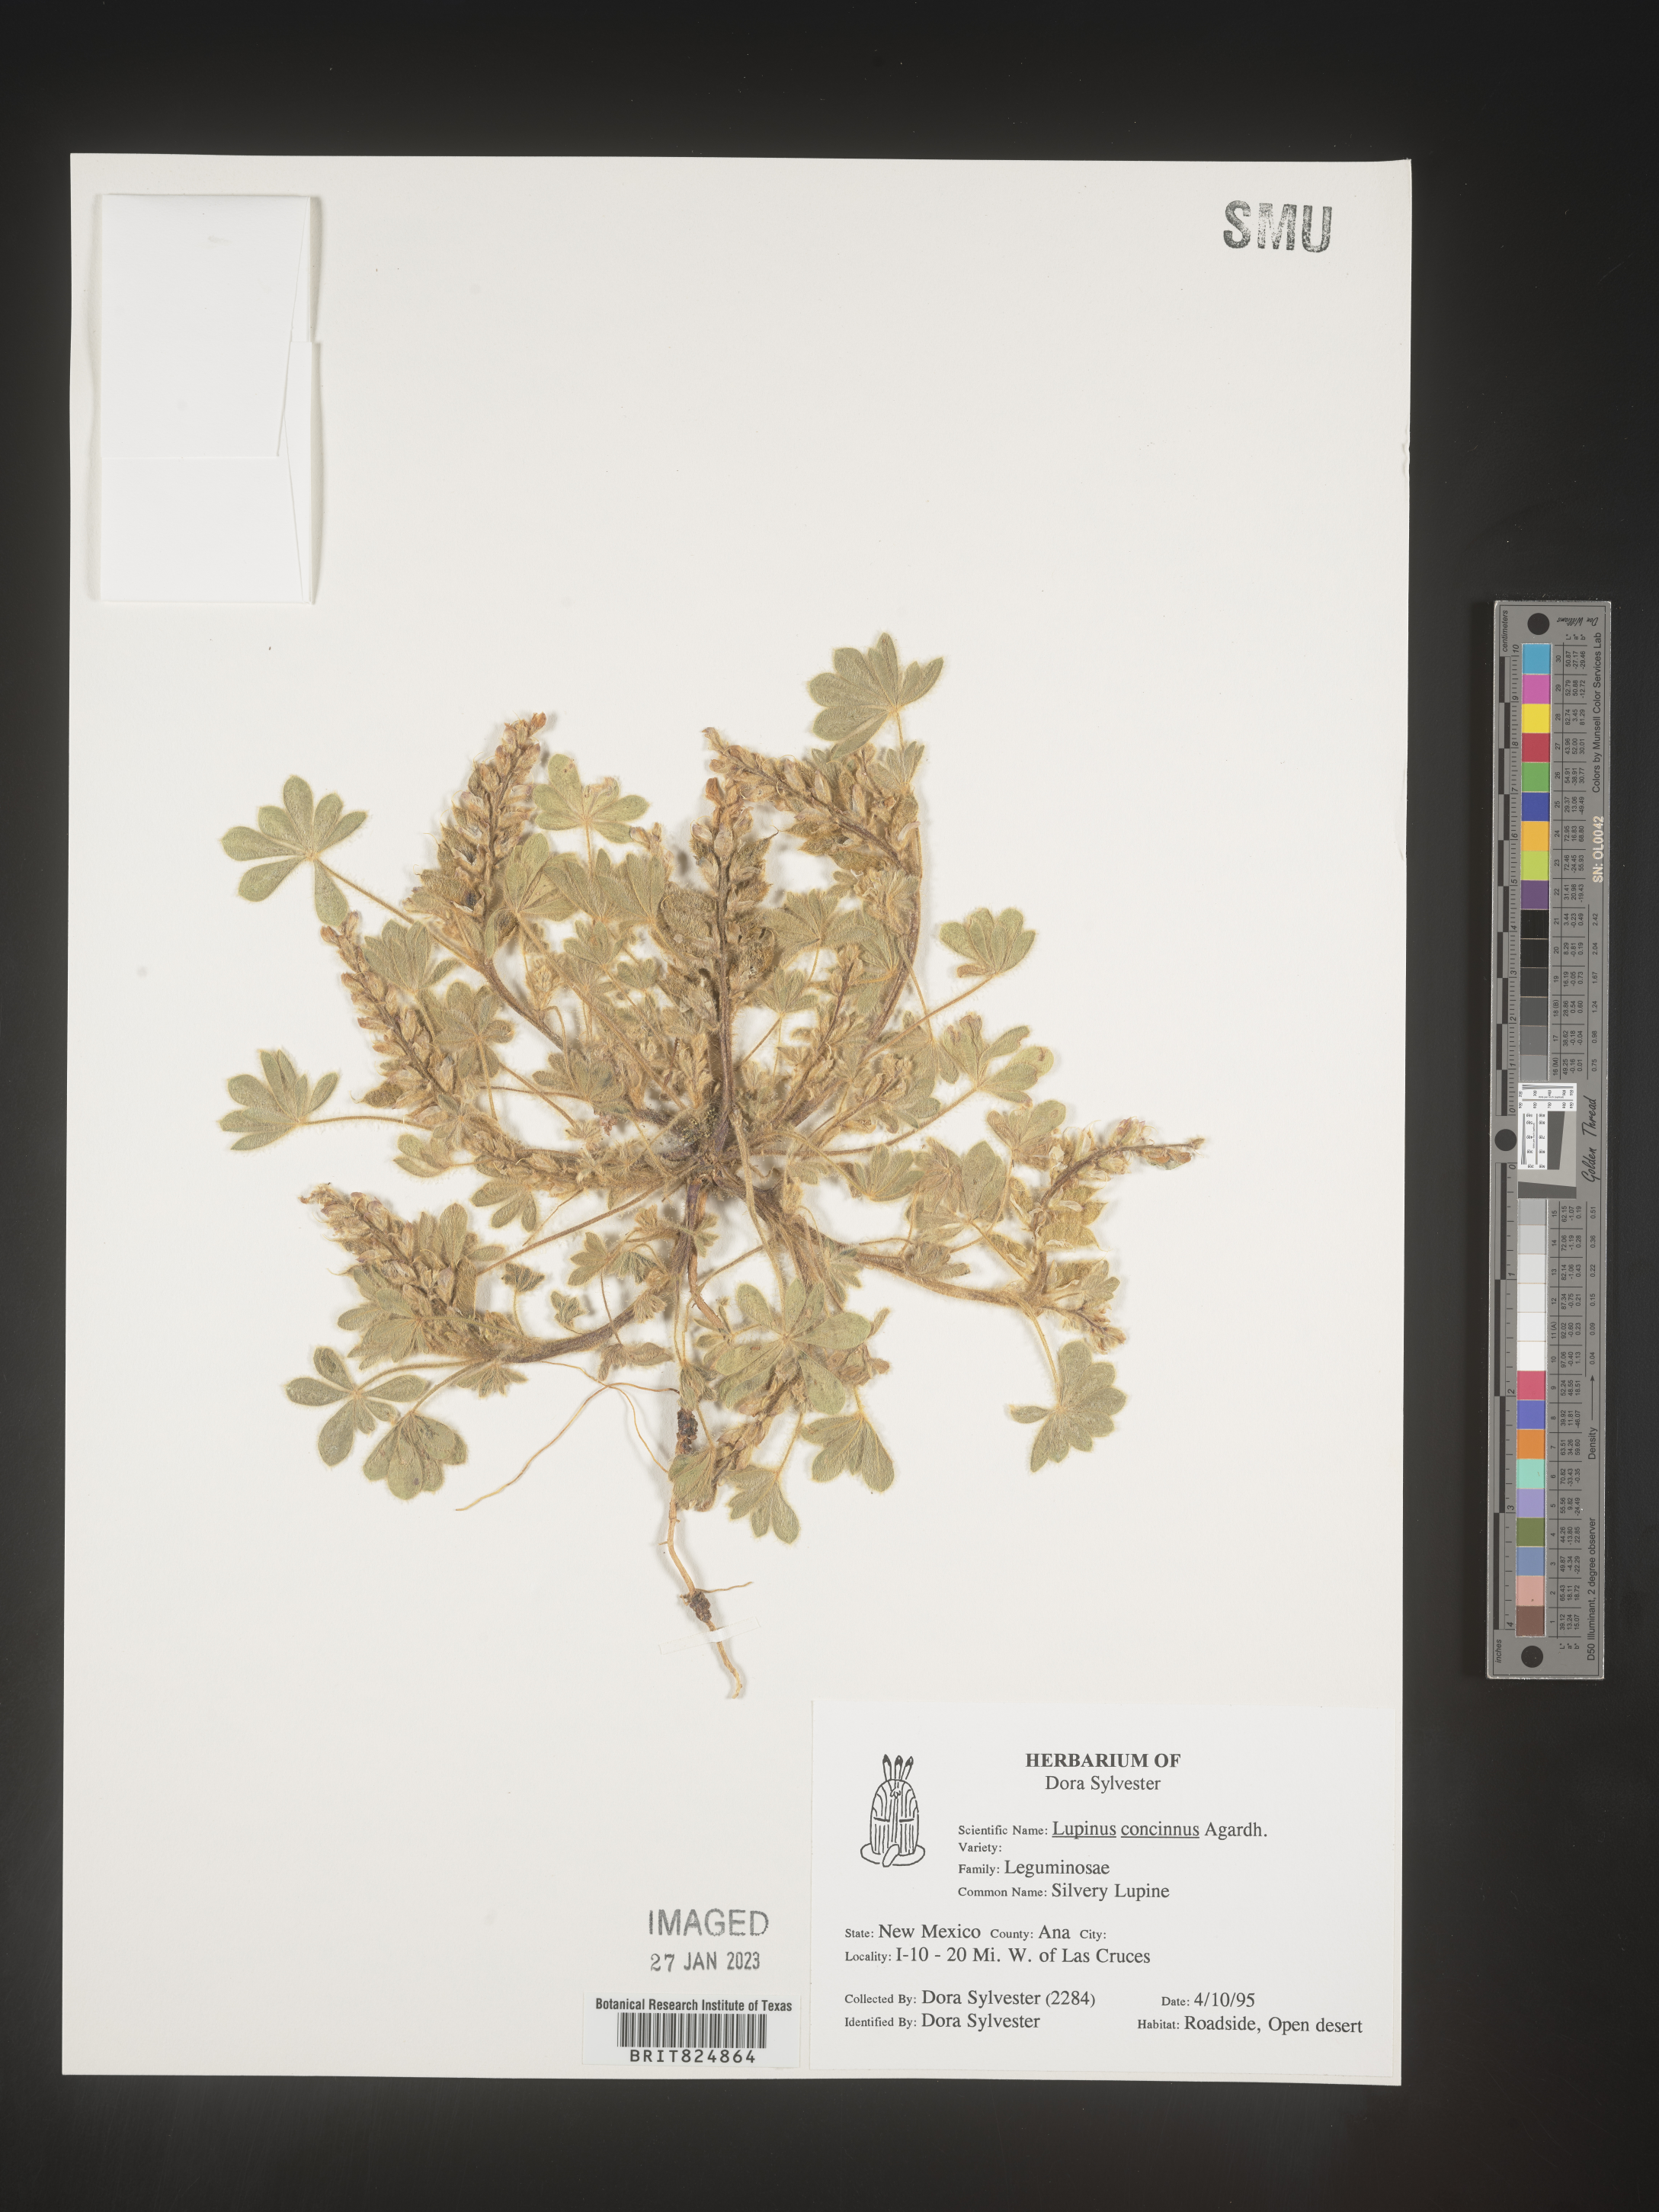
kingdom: Plantae
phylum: Tracheophyta
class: Magnoliopsida
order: Fabales
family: Fabaceae
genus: Lupinus
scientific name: Lupinus
